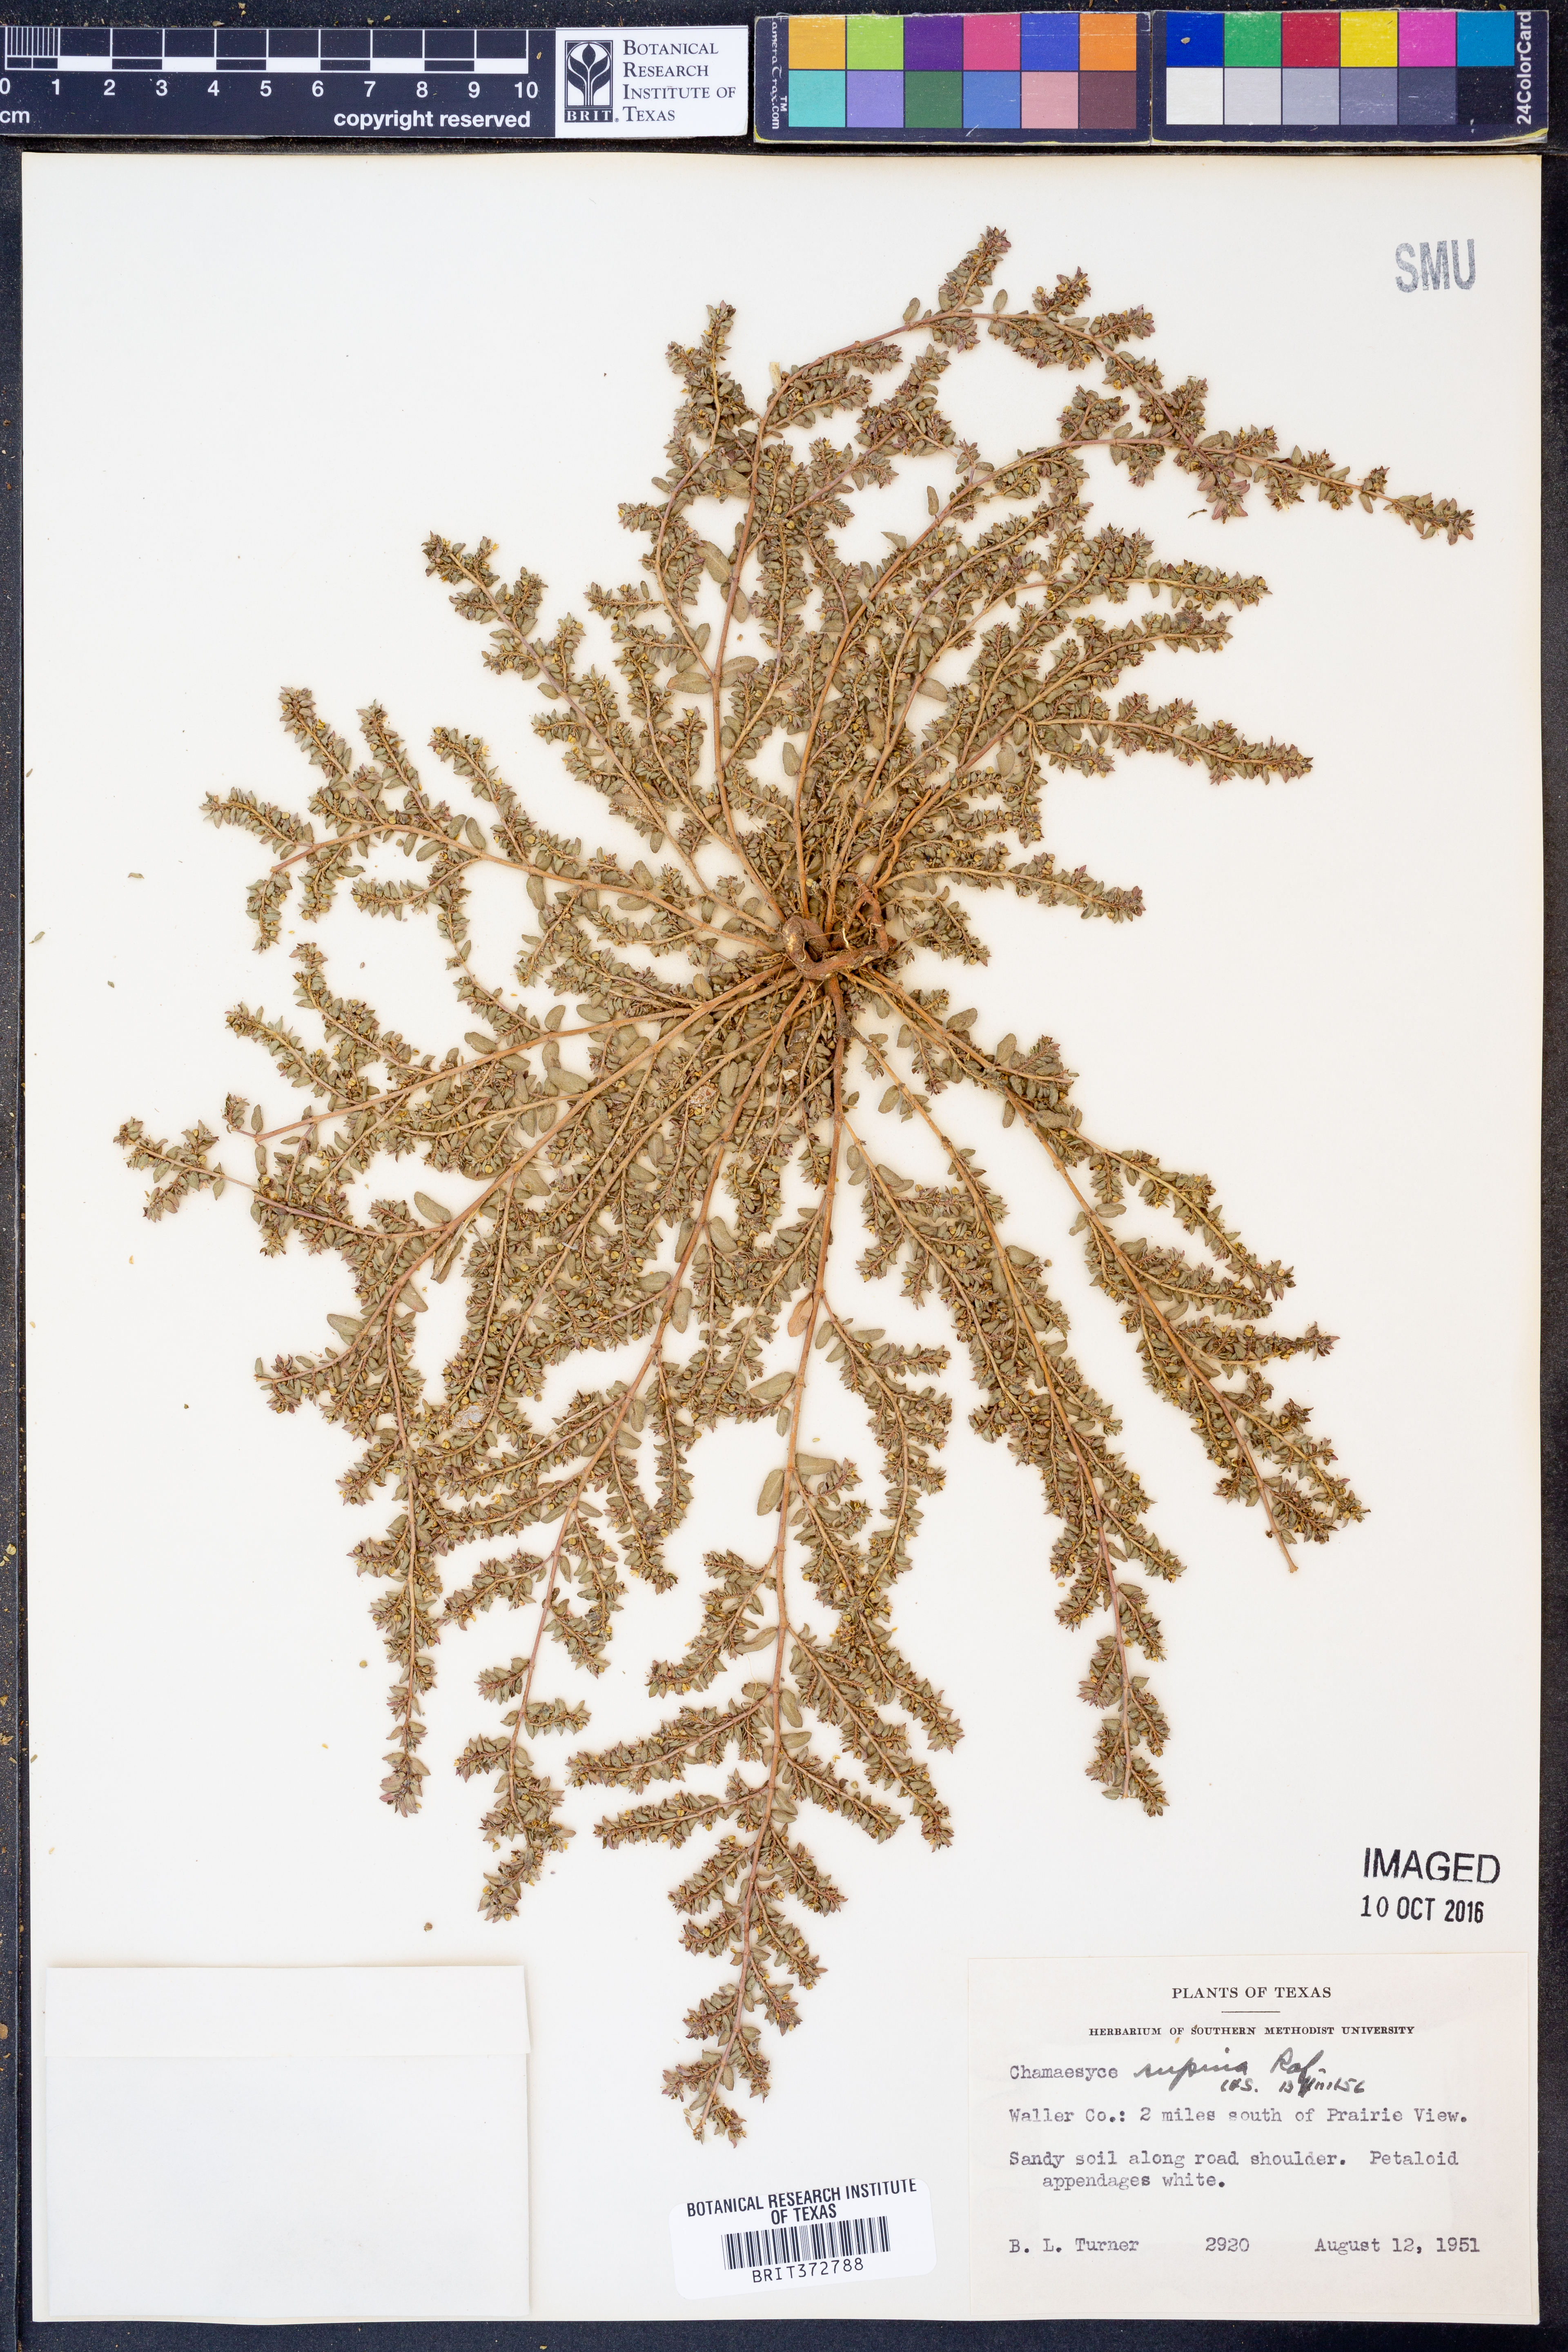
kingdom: Plantae
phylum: Tracheophyta
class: Magnoliopsida
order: Malpighiales
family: Euphorbiaceae
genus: Euphorbia
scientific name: Euphorbia maculata
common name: Spotted spurge
